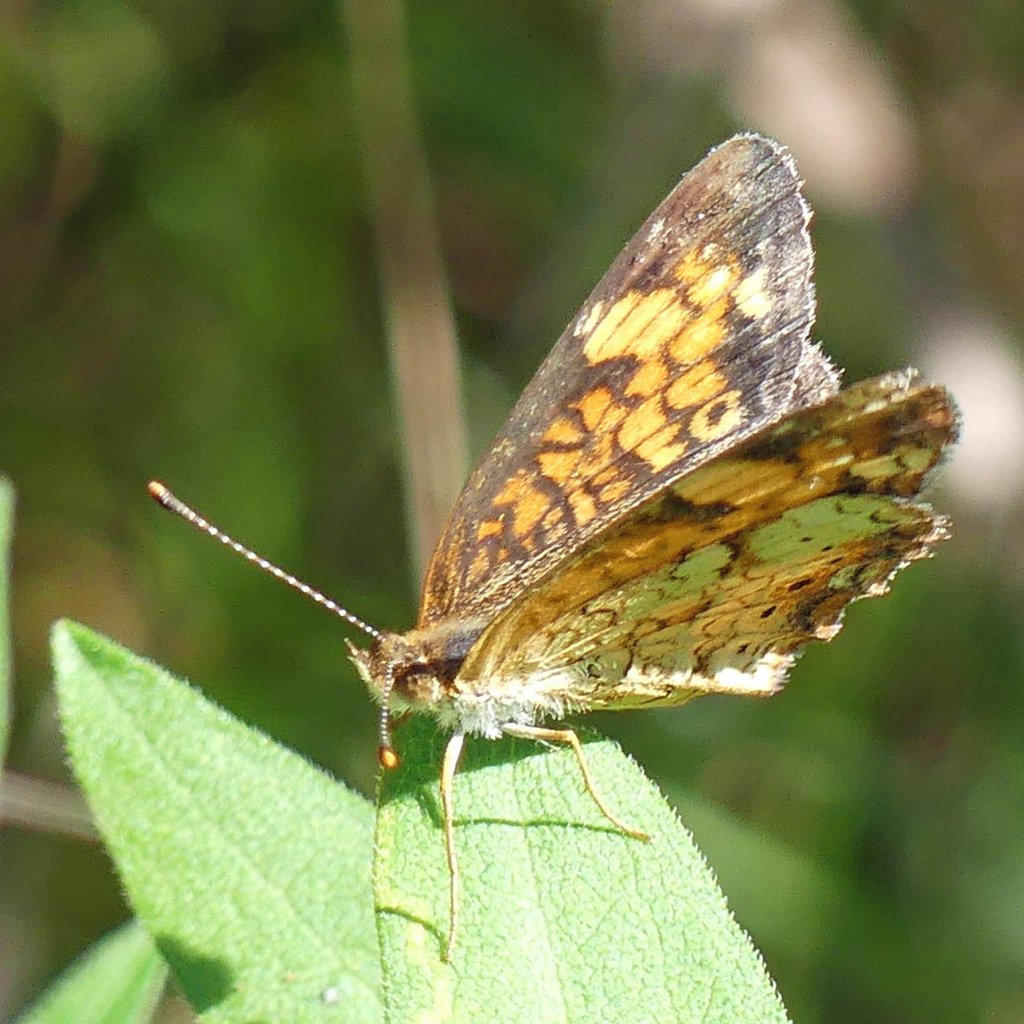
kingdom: Animalia
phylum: Arthropoda
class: Insecta
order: Lepidoptera
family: Nymphalidae
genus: Phyciodes
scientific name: Phyciodes tharos
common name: Northern Crescent
